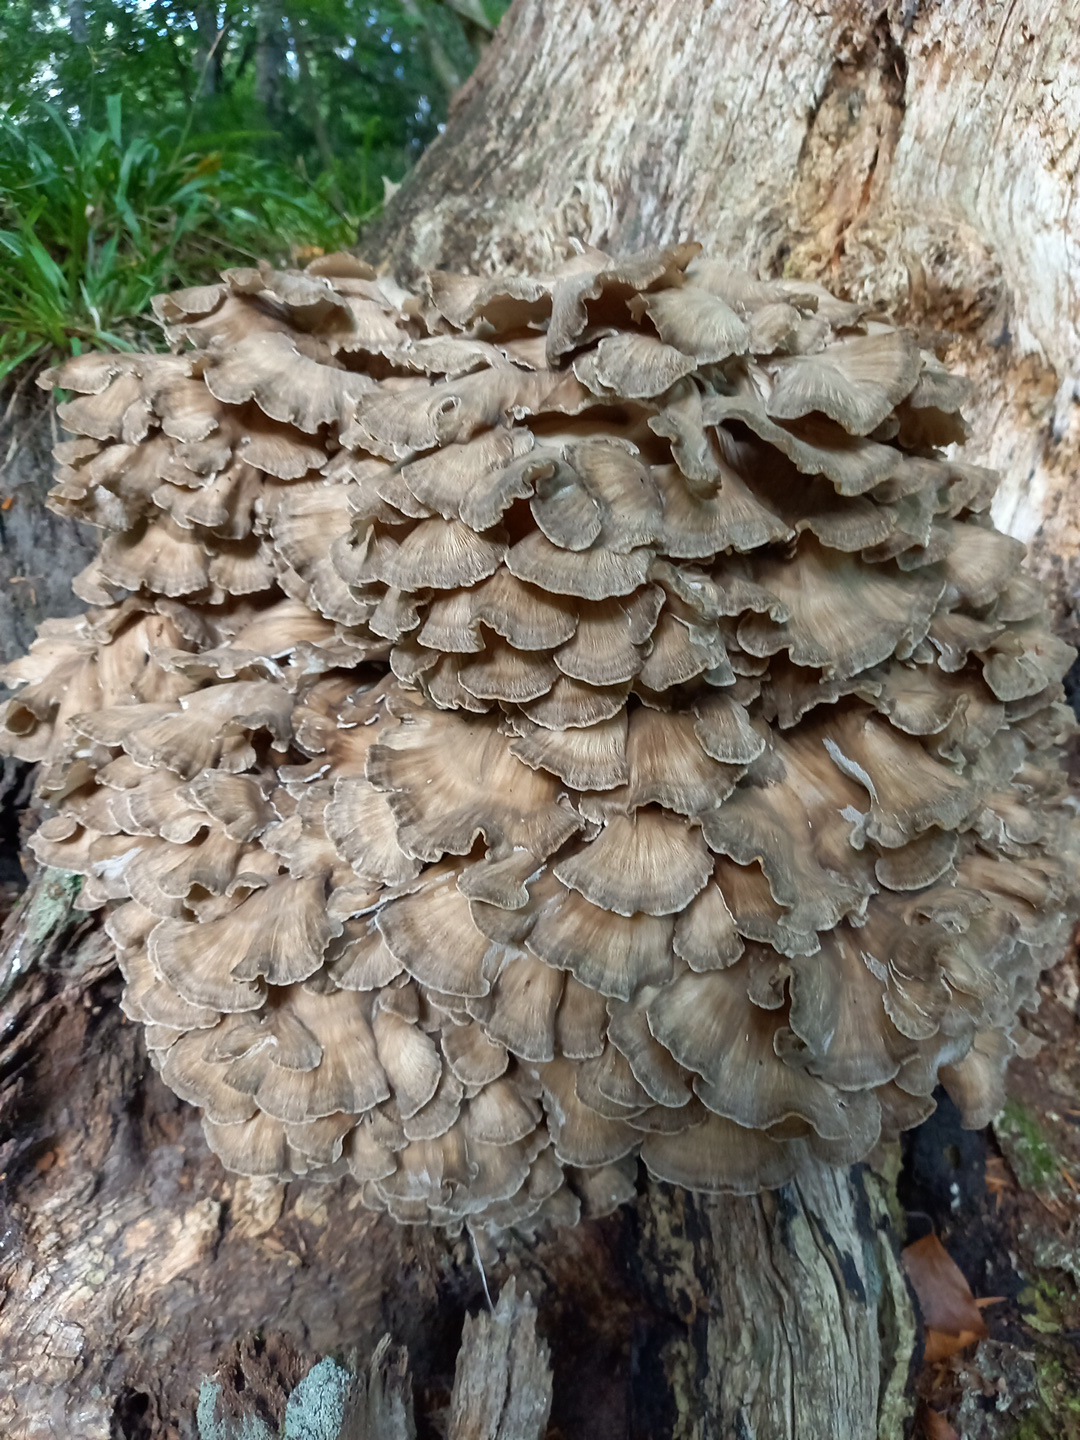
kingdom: Fungi
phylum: Basidiomycota
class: Agaricomycetes
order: Polyporales
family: Grifolaceae
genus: Grifola
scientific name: Grifola frondosa
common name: tueporesvamp
